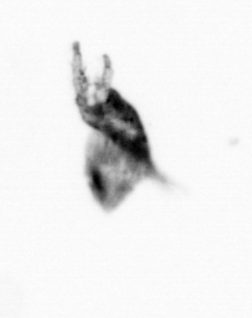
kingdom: Animalia
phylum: Arthropoda
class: Copepoda
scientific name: Copepoda
